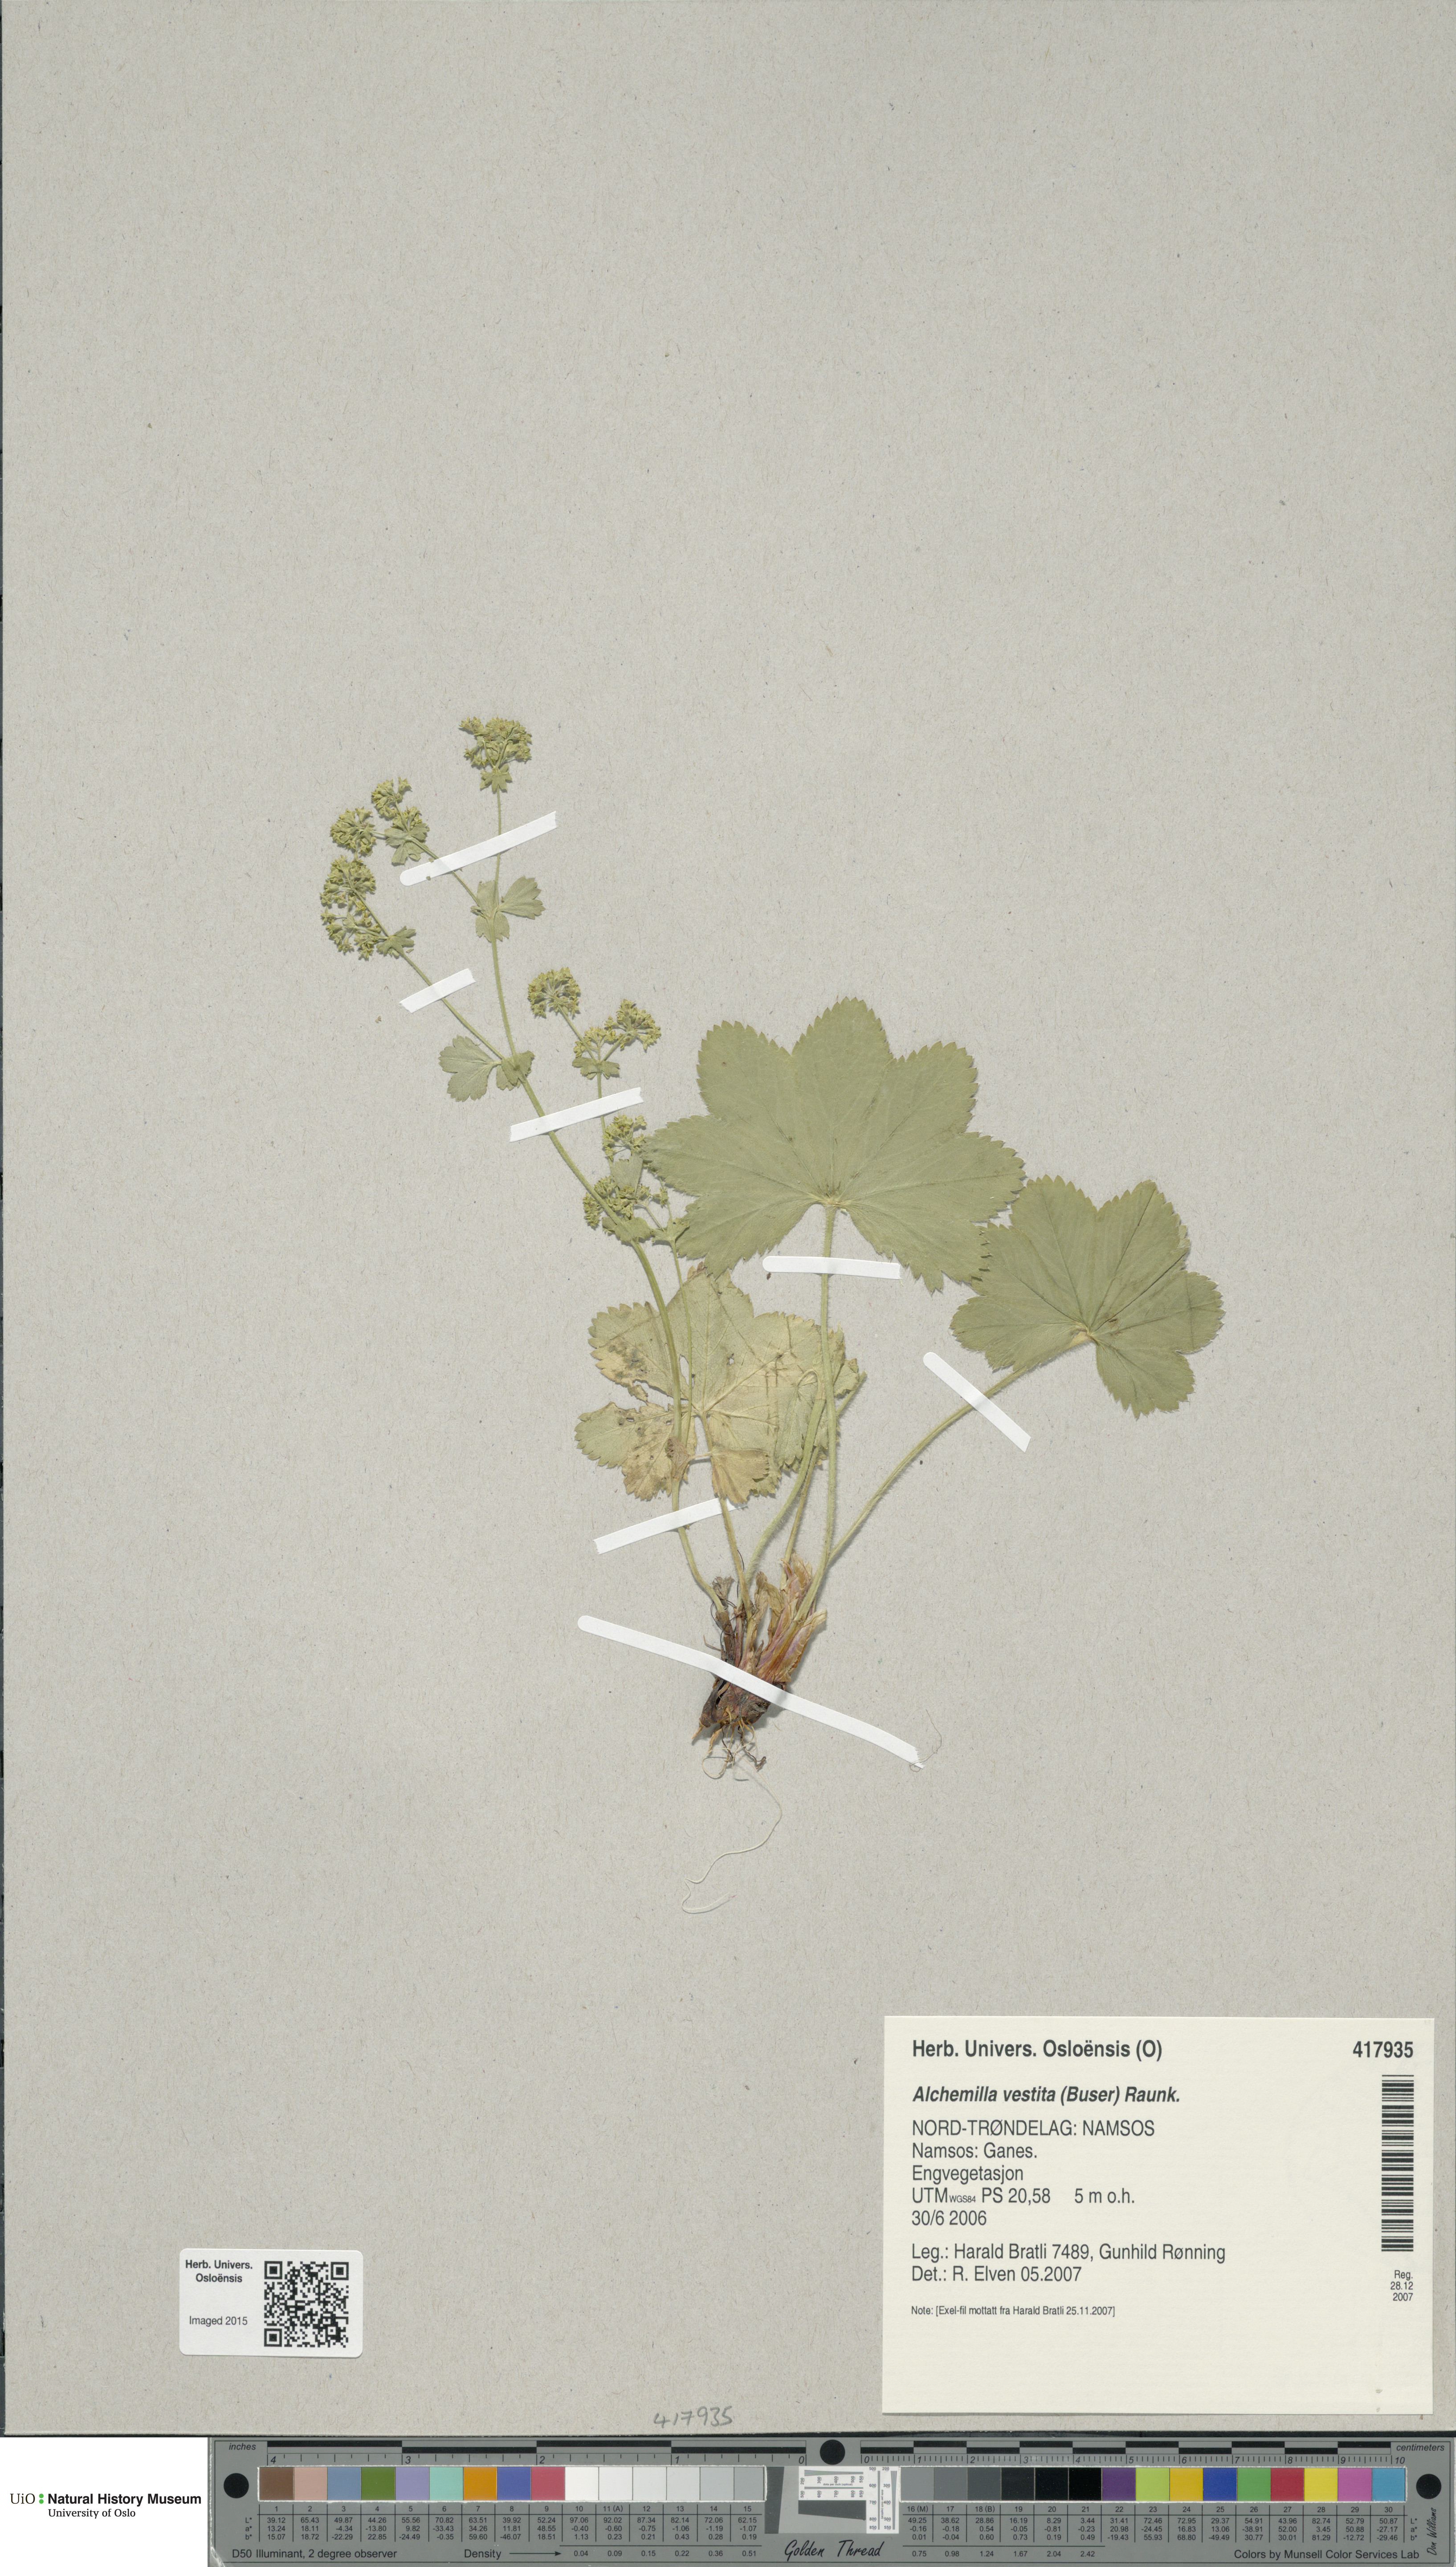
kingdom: Plantae
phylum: Tracheophyta
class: Magnoliopsida
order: Rosales
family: Rosaceae
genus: Alchemilla
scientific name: Alchemilla filicaulis
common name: Hairy lady's-mantle
